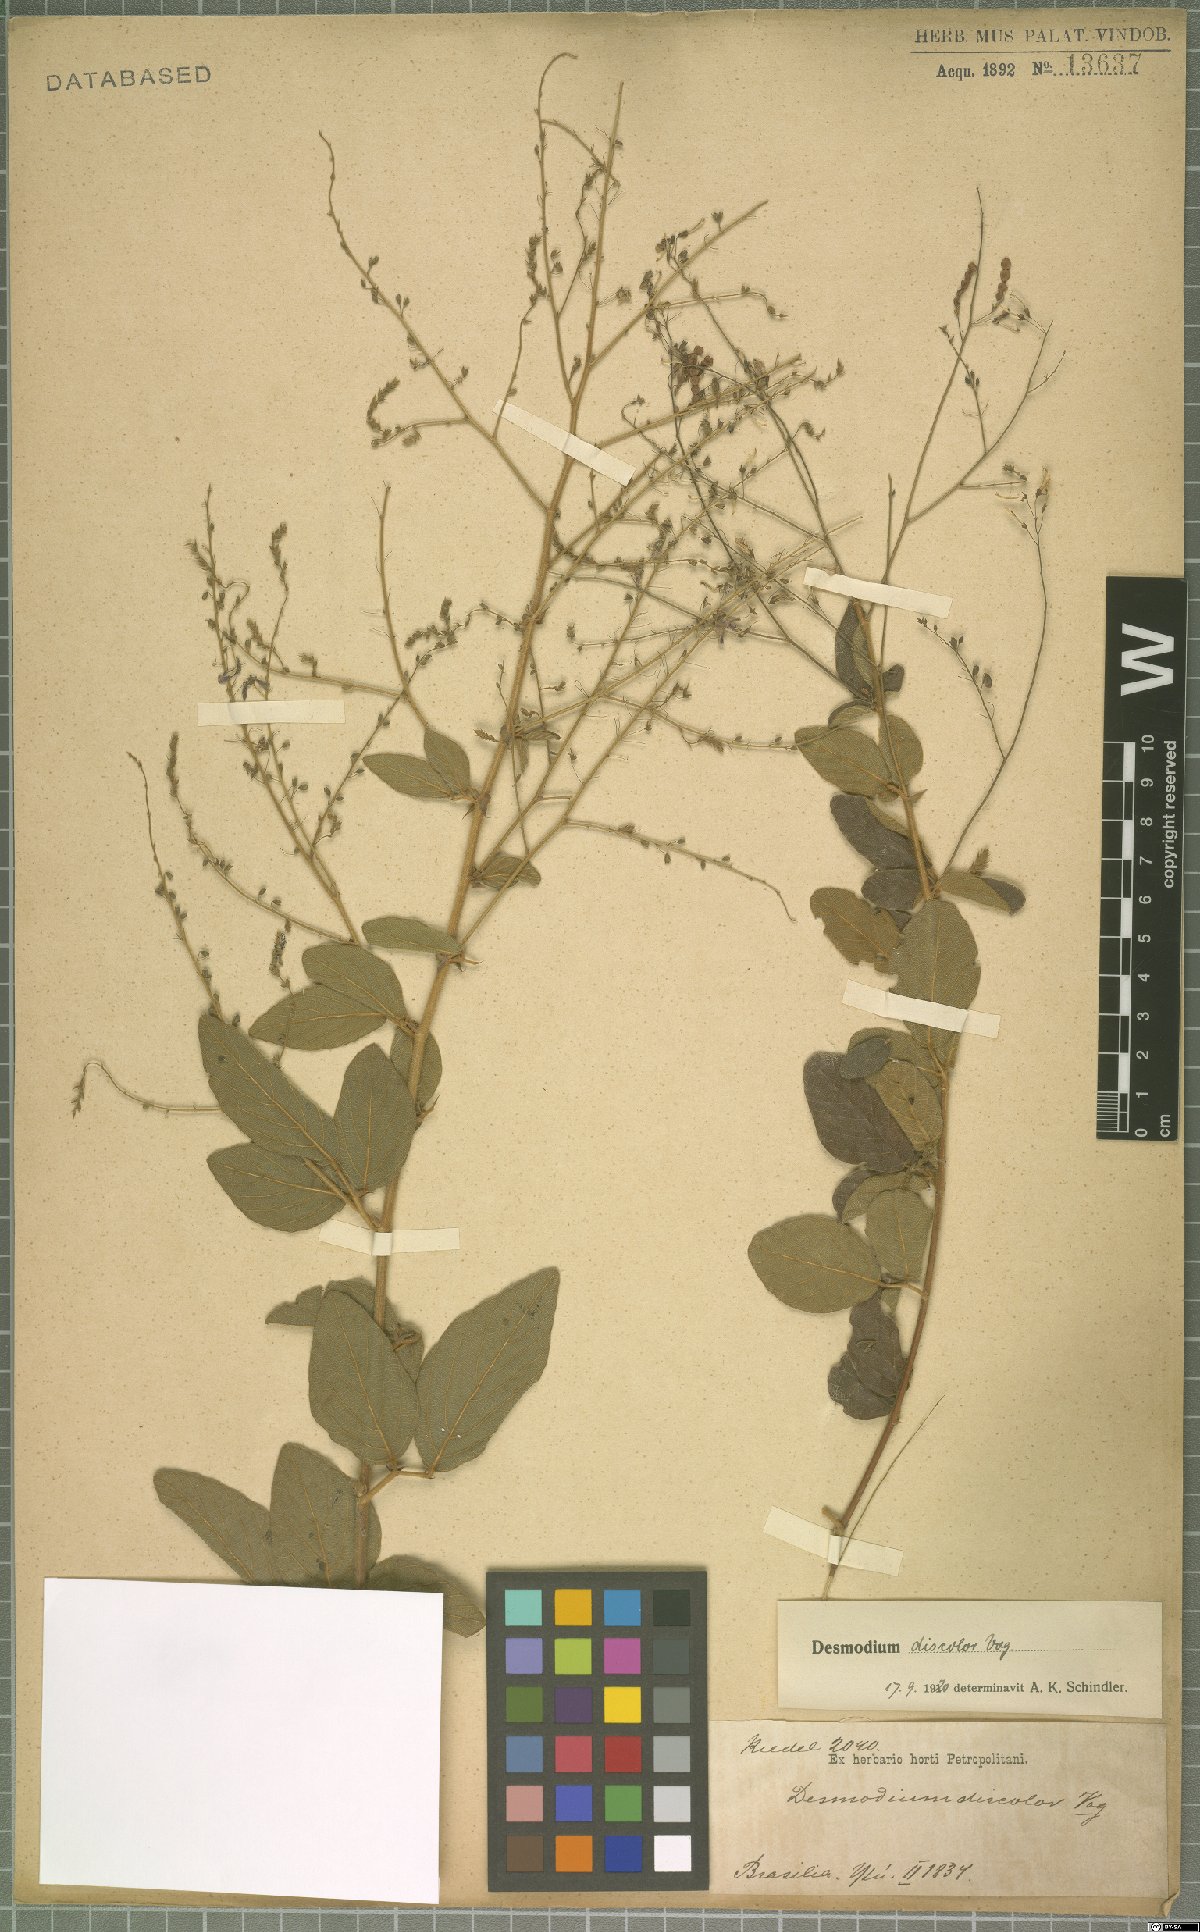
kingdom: Plantae
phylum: Tracheophyta
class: Magnoliopsida
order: Fabales
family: Fabaceae
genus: Desmodium
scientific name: Desmodium subsecundum
